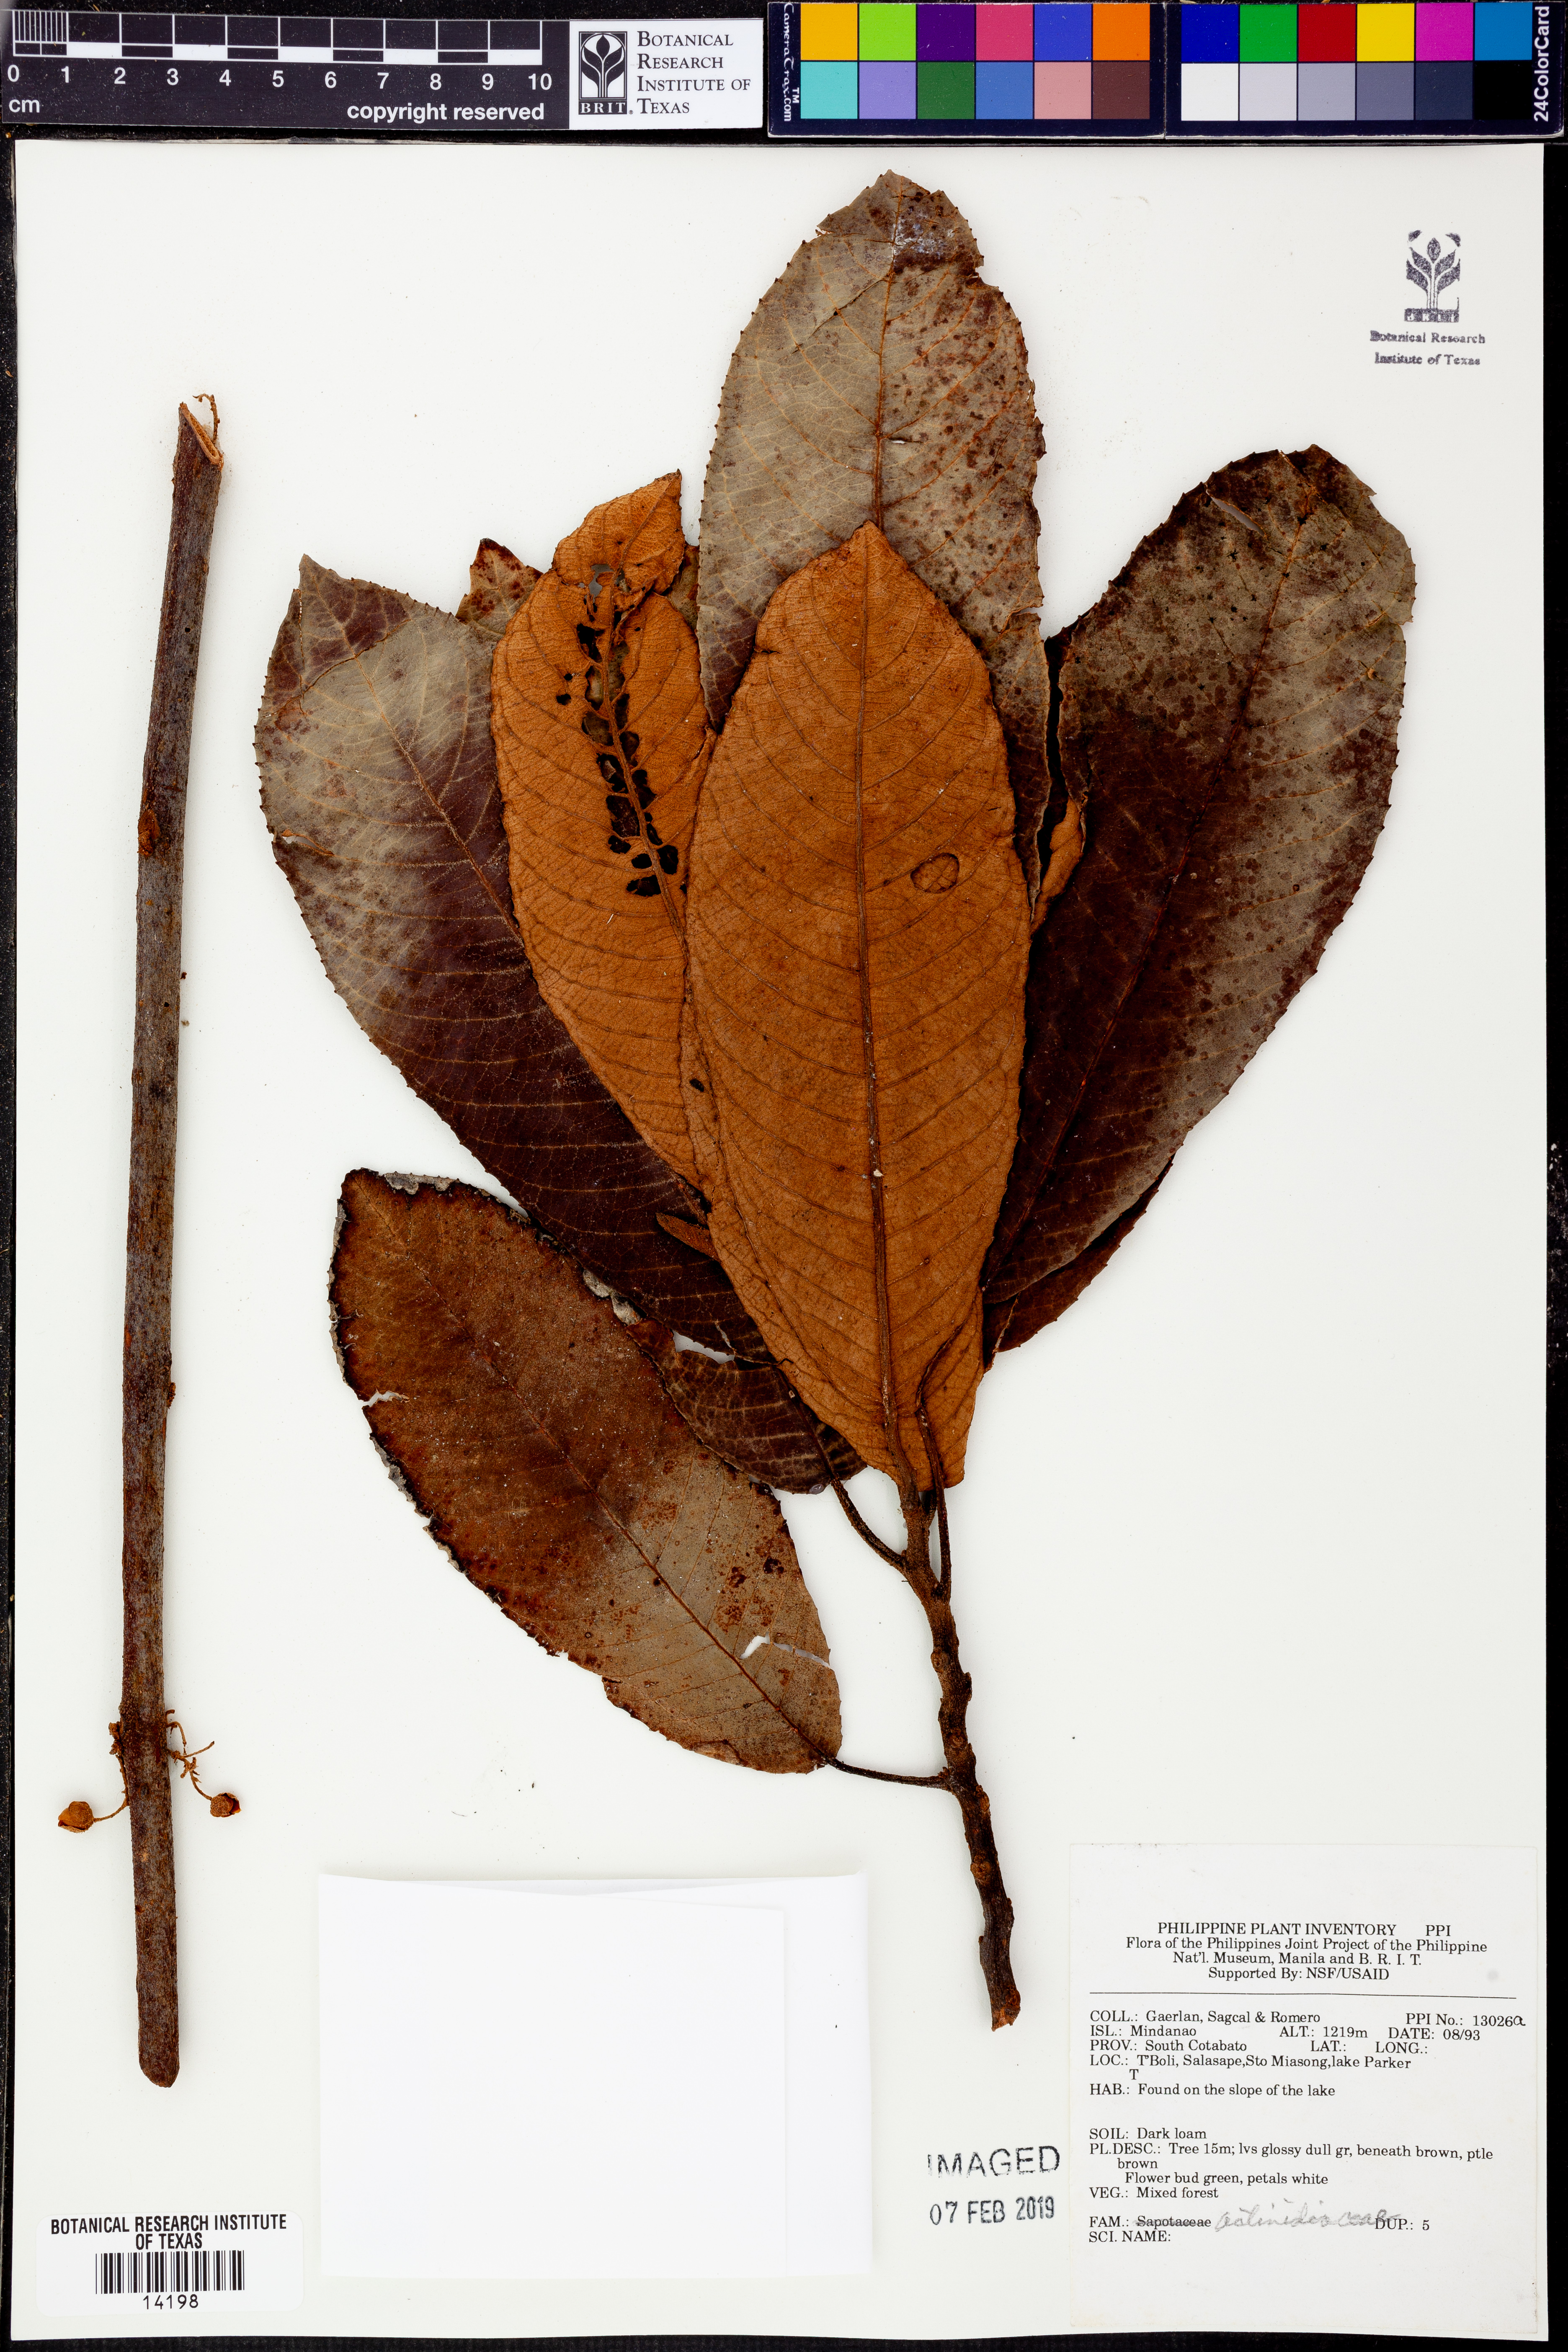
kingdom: Plantae
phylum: Tracheophyta
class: Magnoliopsida
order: Ericales
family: Actinidiaceae
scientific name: Actinidiaceae
